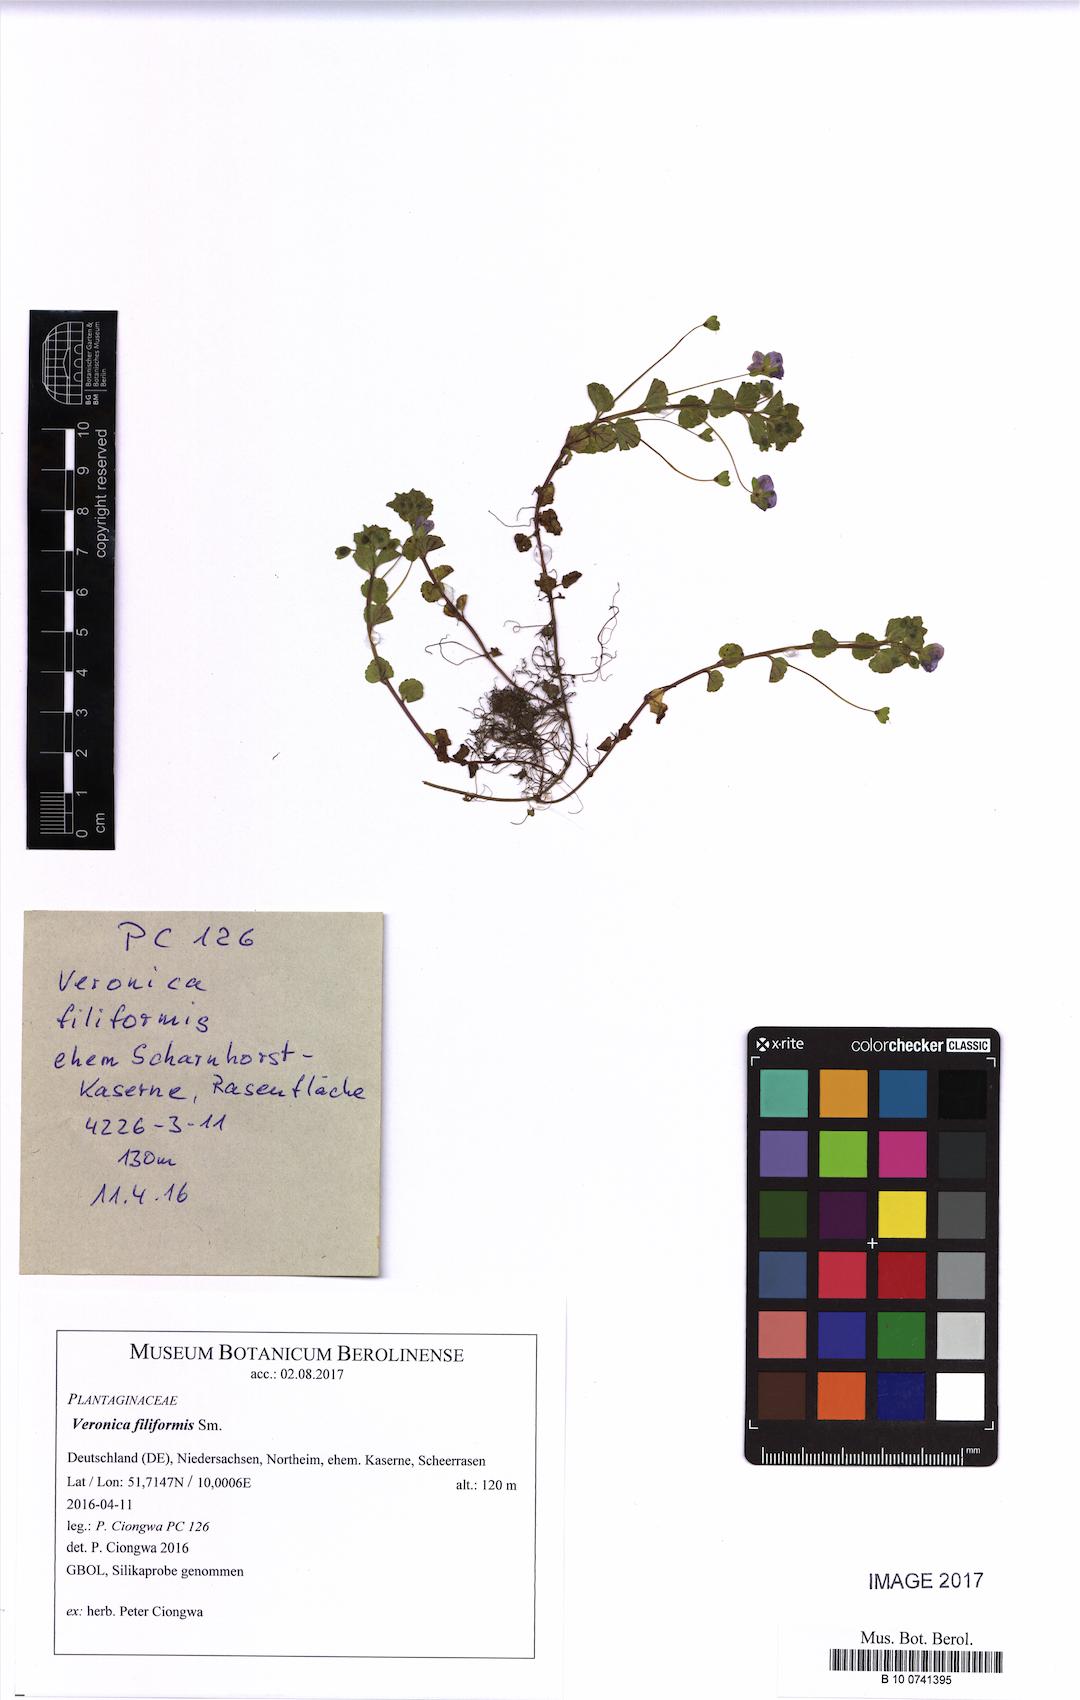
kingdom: Plantae
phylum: Tracheophyta
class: Magnoliopsida
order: Lamiales
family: Plantaginaceae
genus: Veronica
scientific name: Veronica filiformis
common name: Slender speedwell
